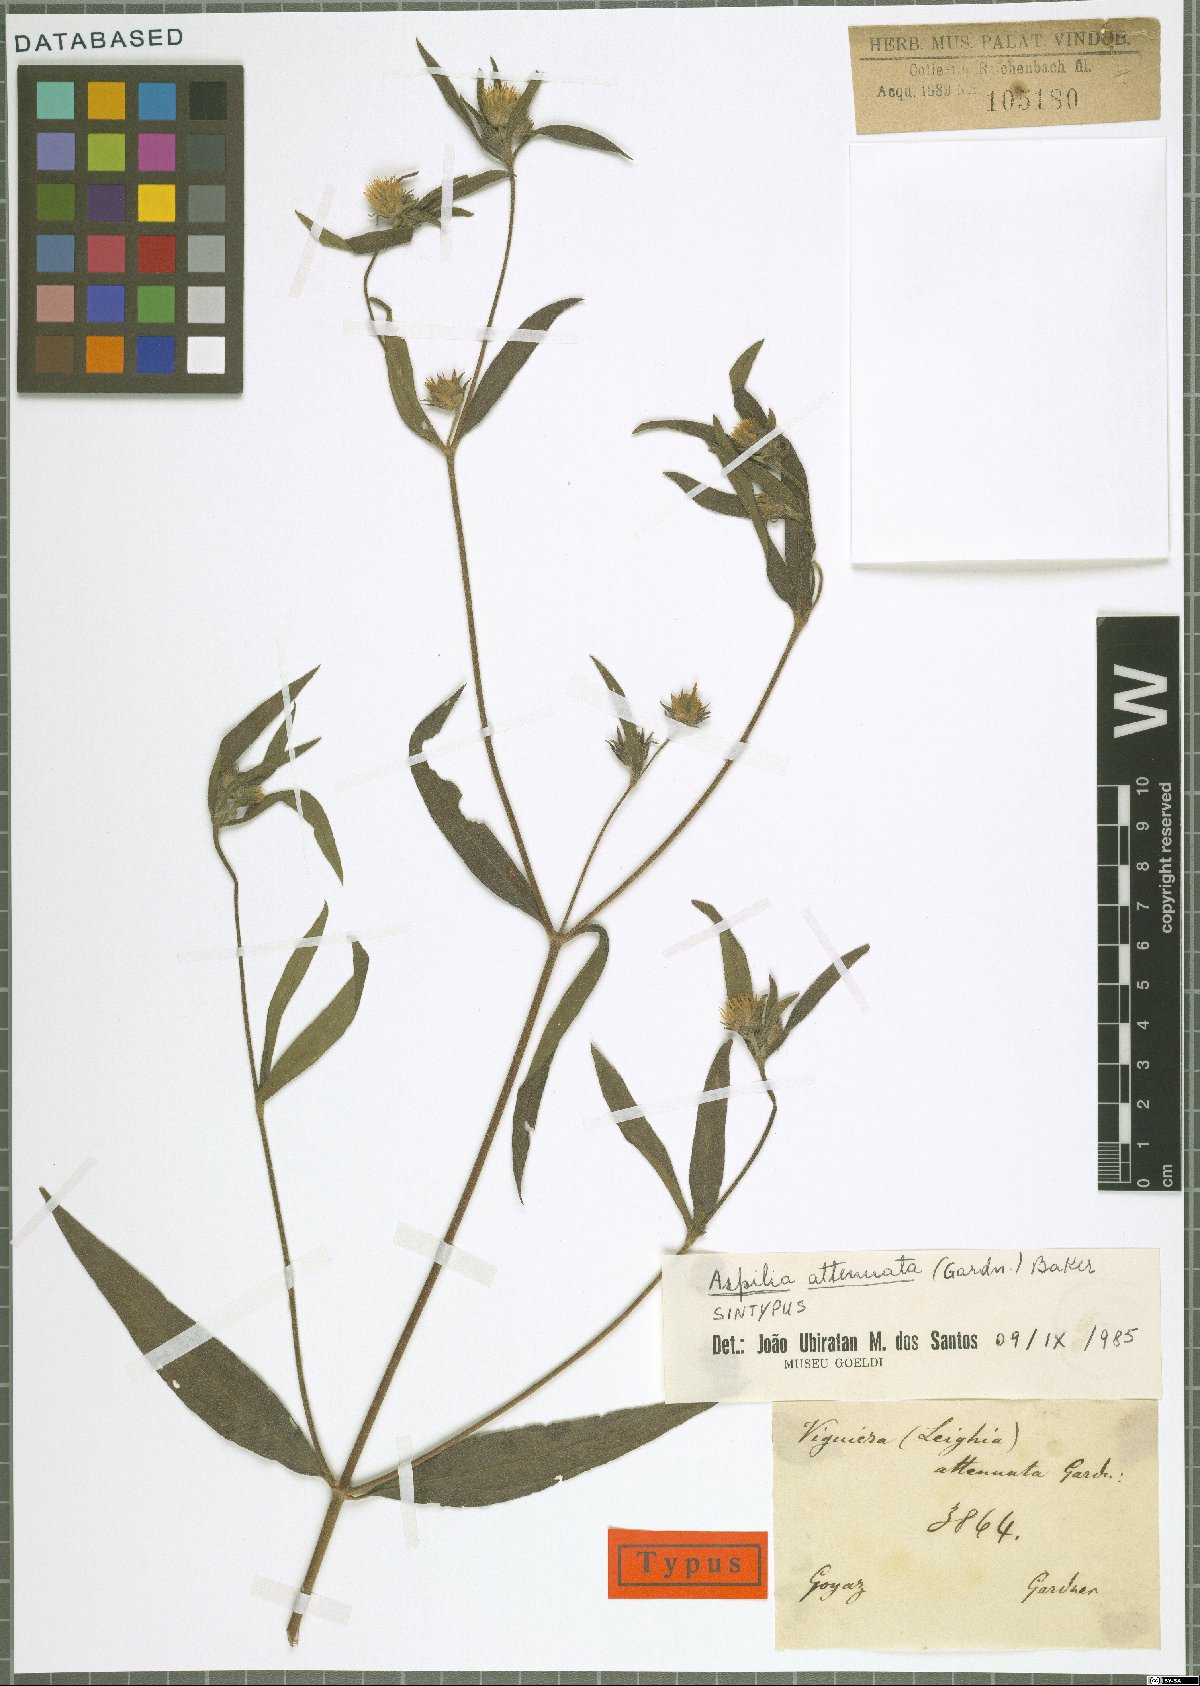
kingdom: Plantae
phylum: Tracheophyta
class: Magnoliopsida
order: Asterales
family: Asteraceae
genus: Wedelia
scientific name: Wedelia attenuata
